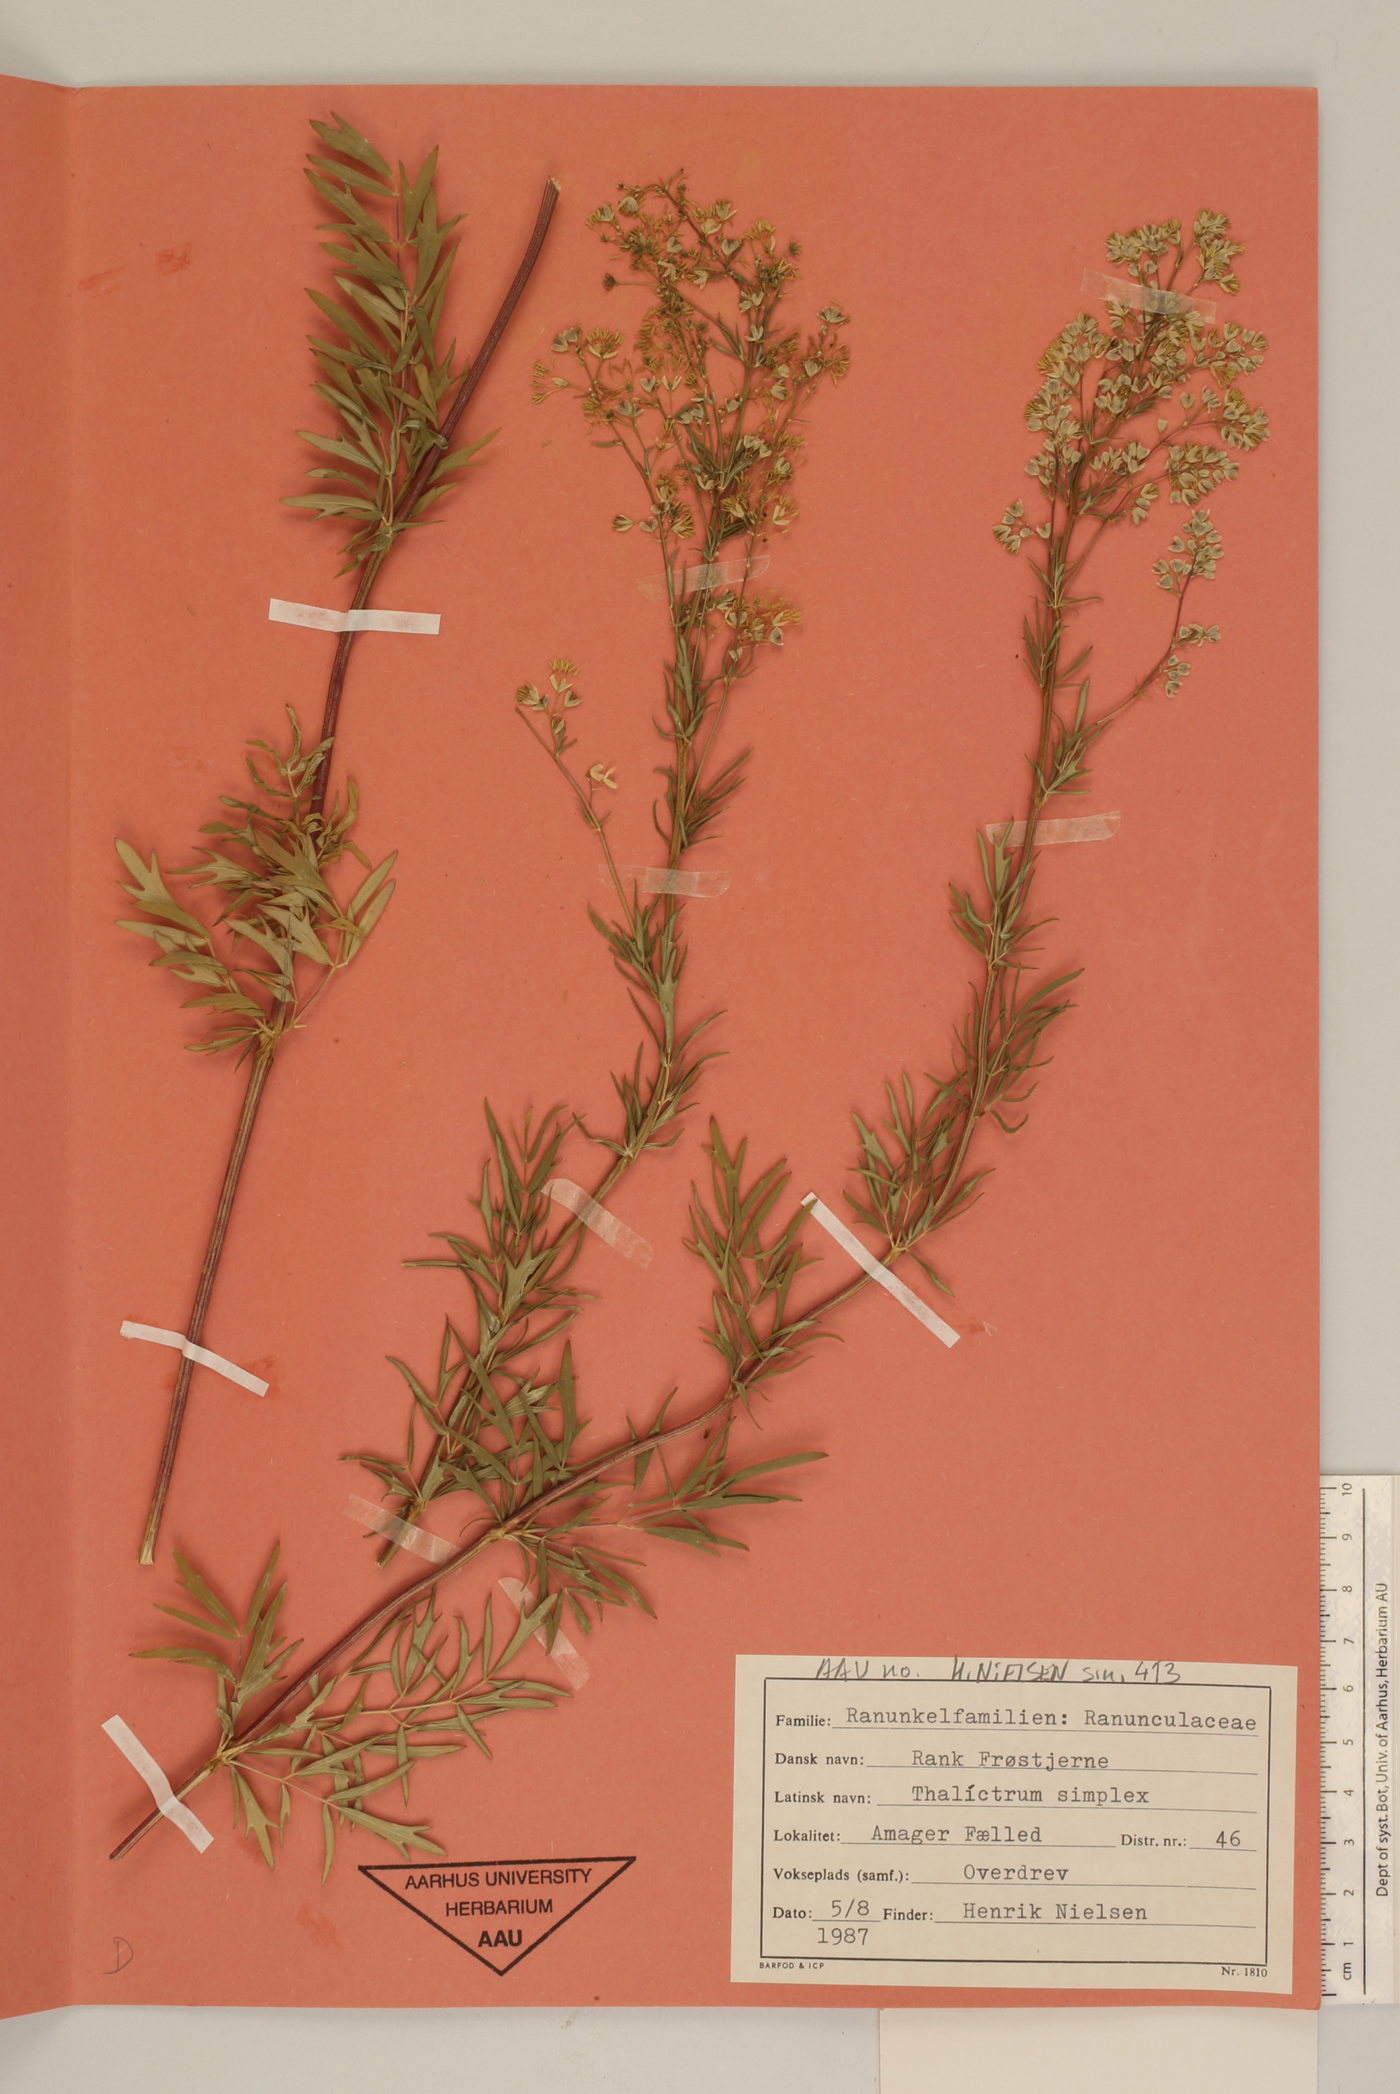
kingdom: Plantae
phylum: Tracheophyta
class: Magnoliopsida
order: Ranunculales
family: Ranunculaceae
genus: Thalictrum
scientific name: Thalictrum simplex
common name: Small meadow-rue
